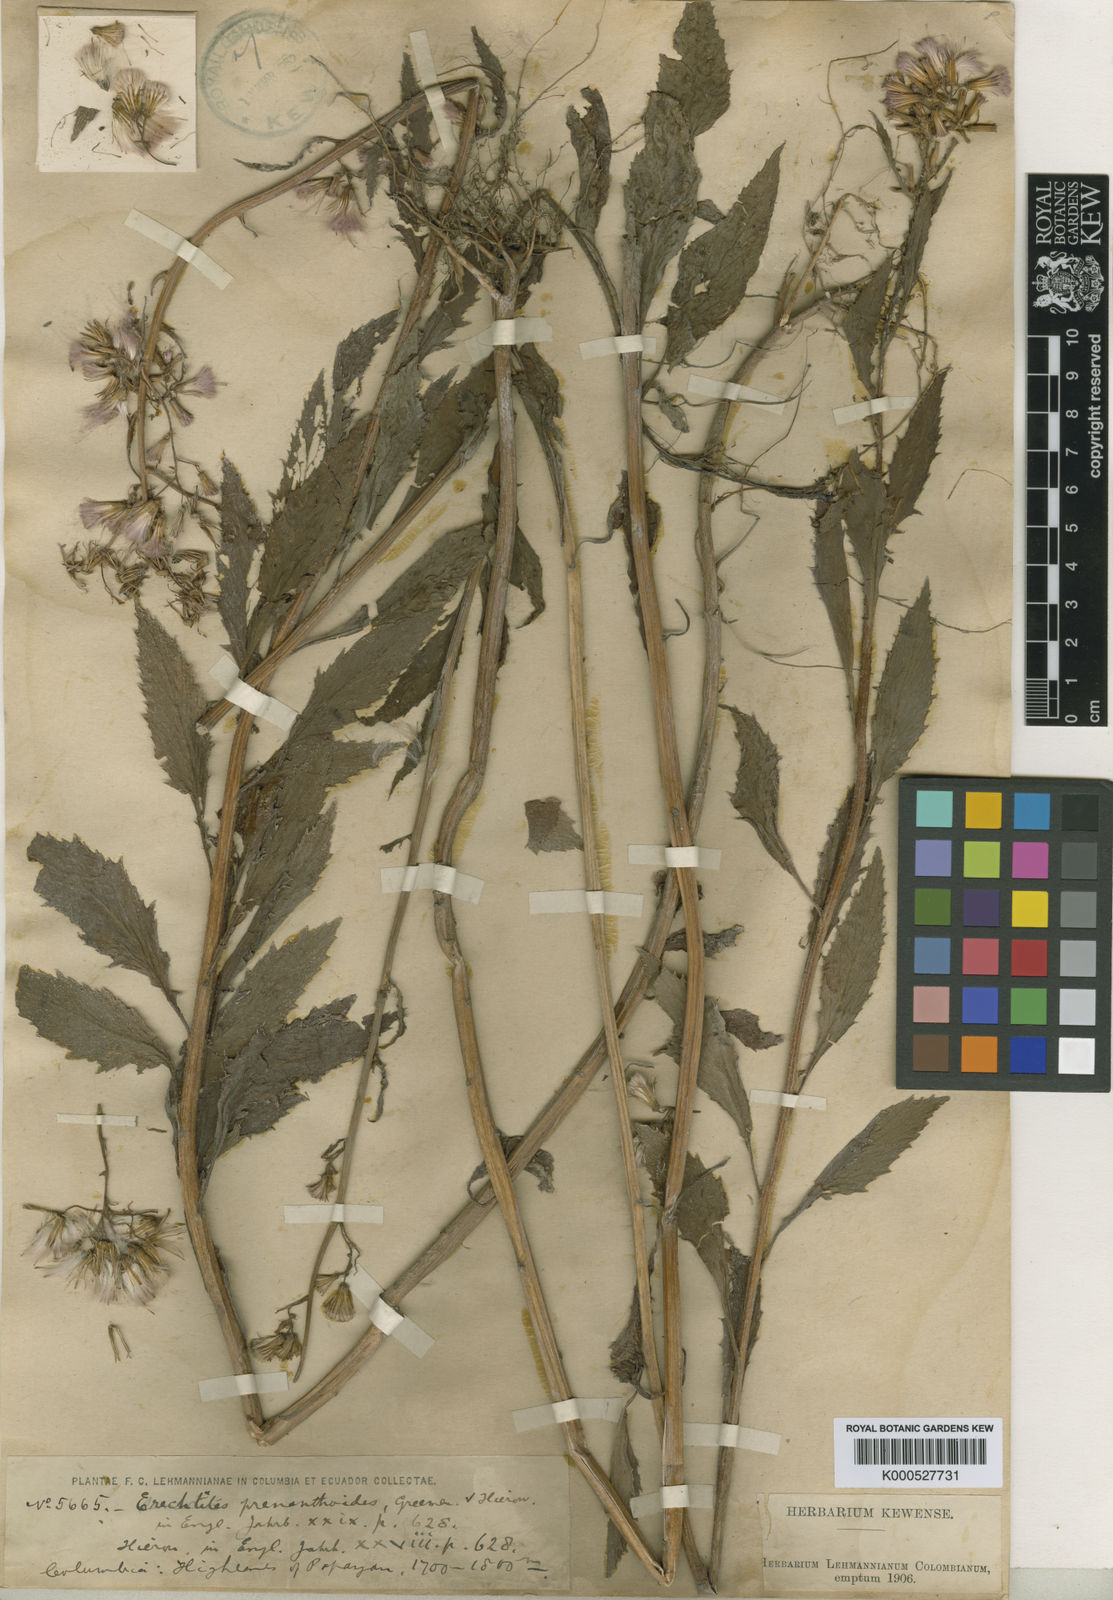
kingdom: Plantae
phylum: Tracheophyta
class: Magnoliopsida
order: Asterales
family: Asteraceae
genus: Erechtites
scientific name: Erechtites albiflorus
